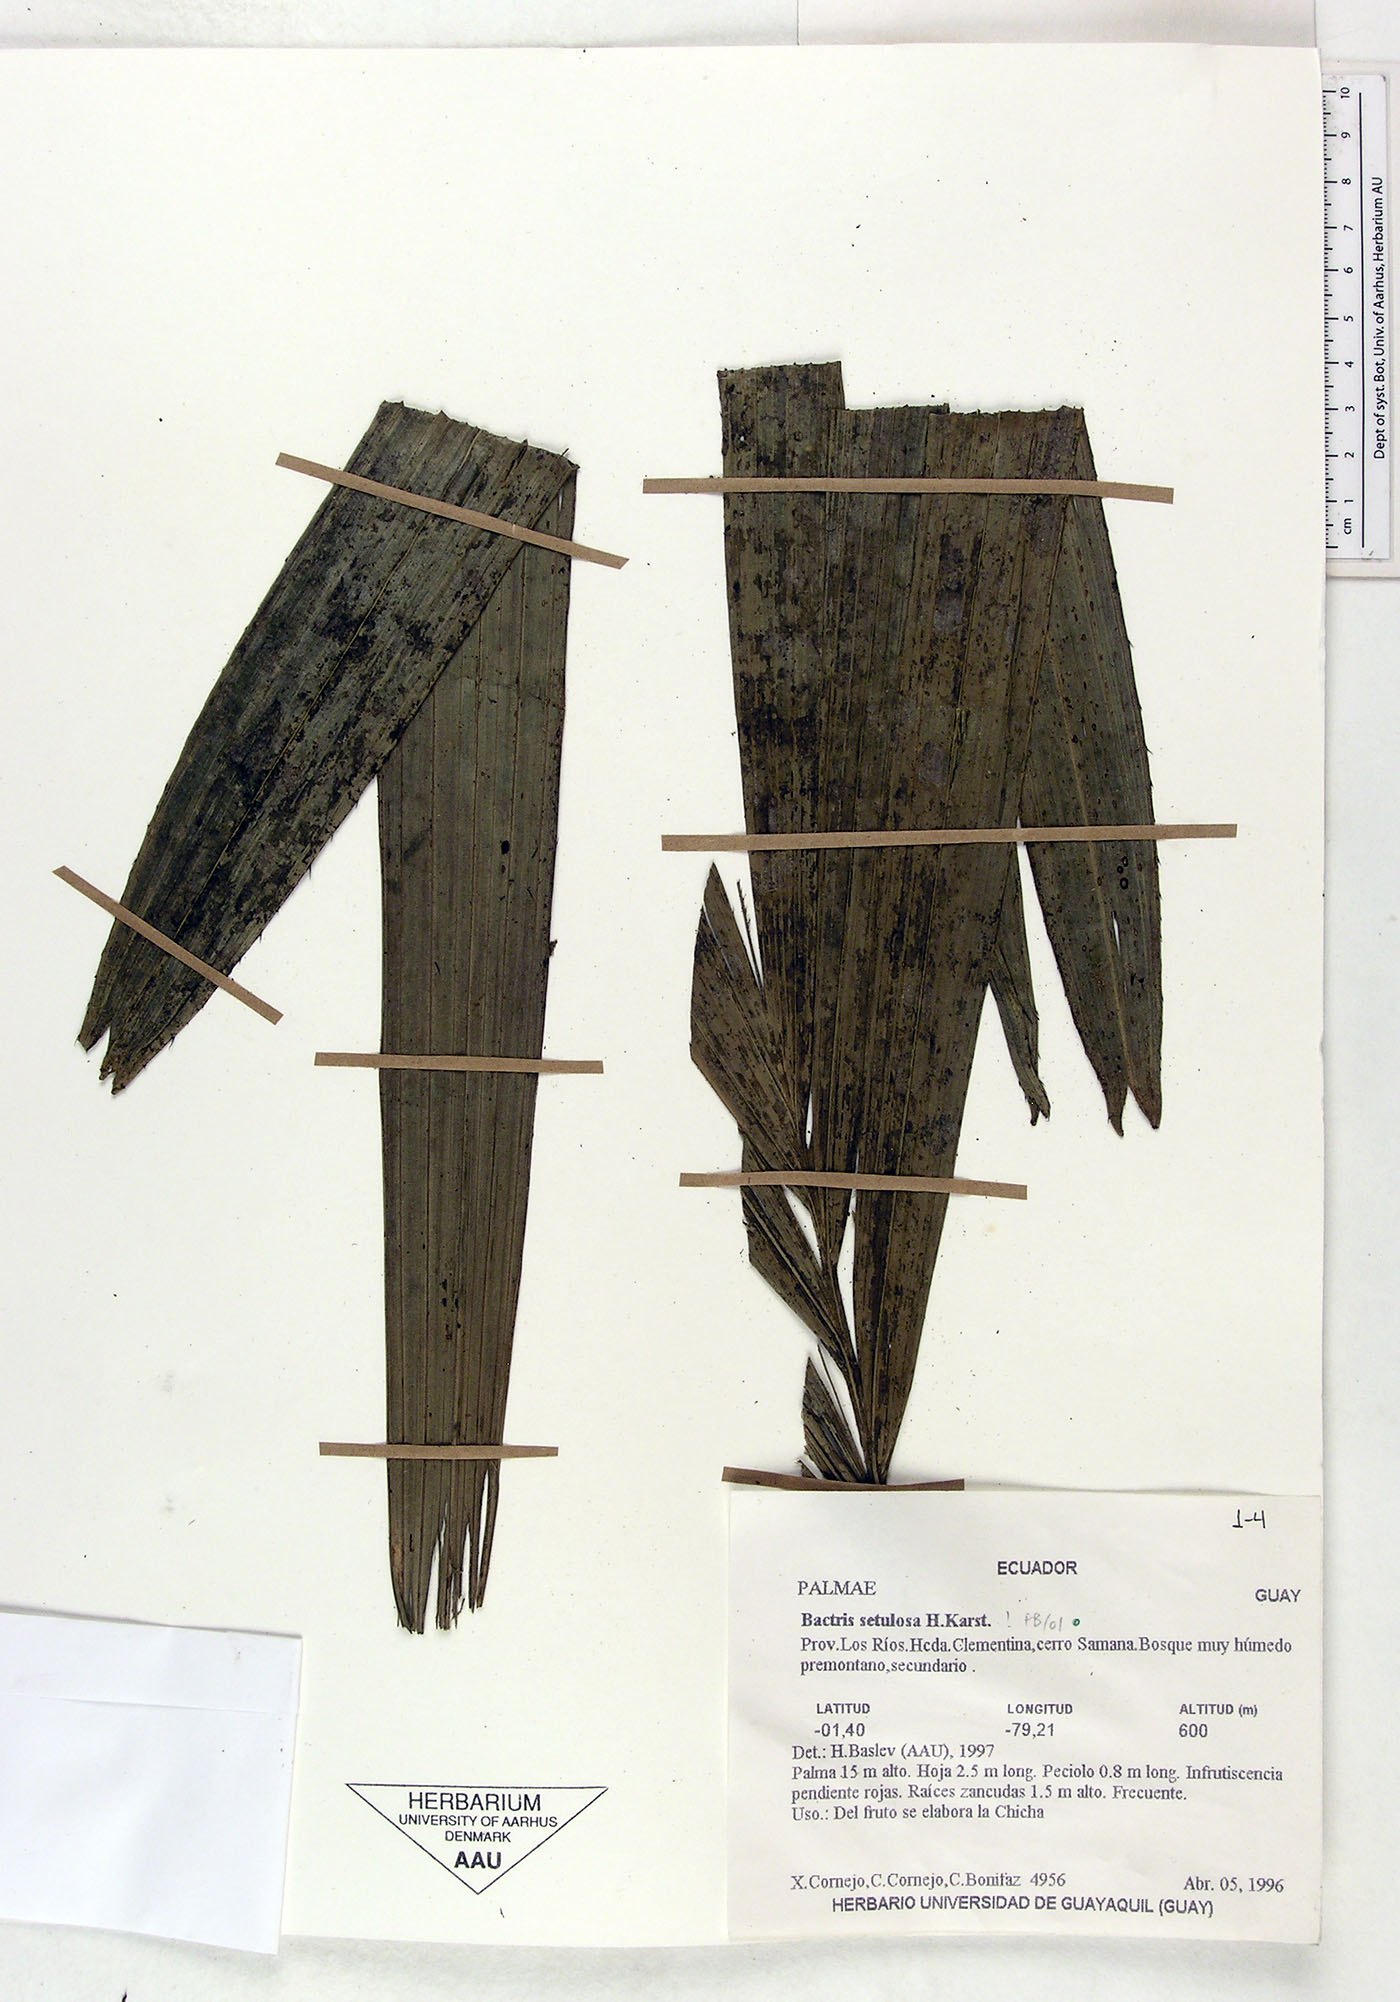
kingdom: Plantae
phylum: Tracheophyta
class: Liliopsida
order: Arecales
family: Arecaceae
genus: Bactris
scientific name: Bactris setulosa
